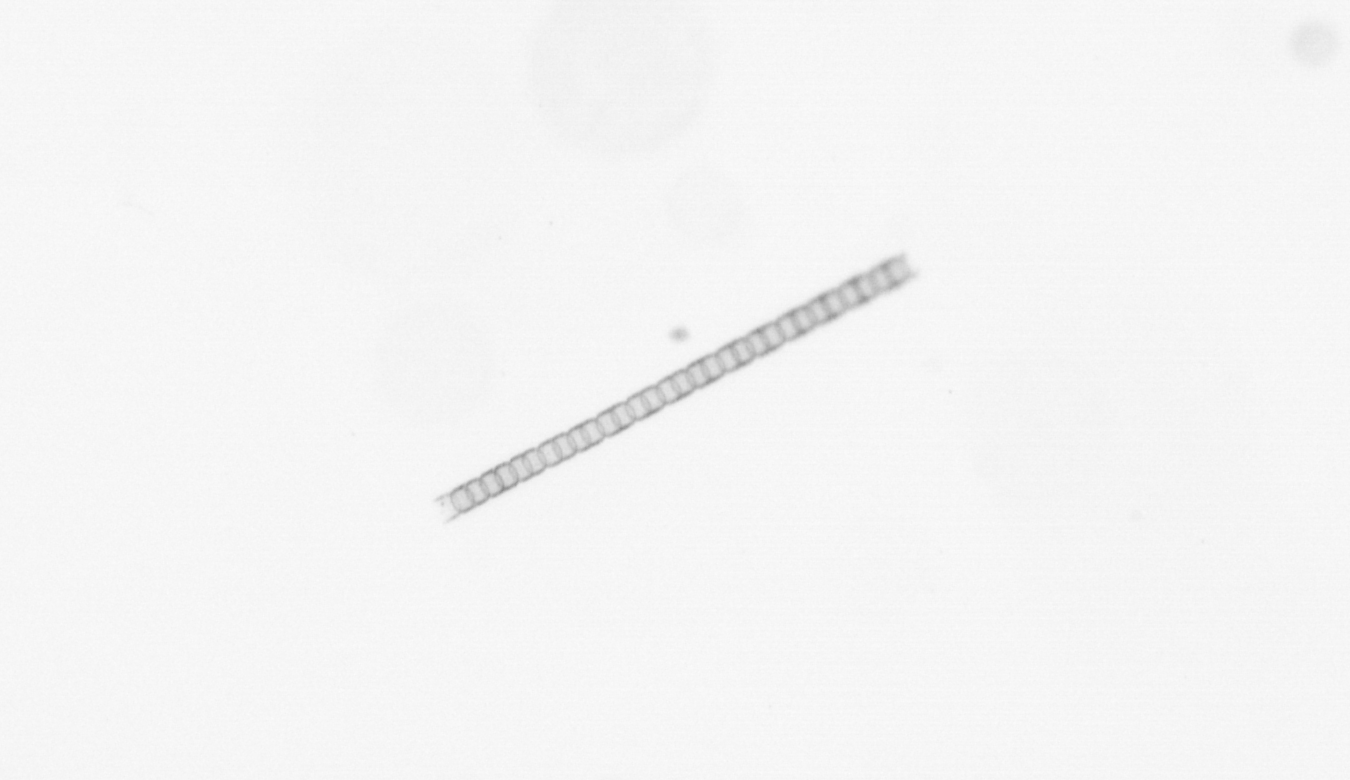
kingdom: Chromista
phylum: Ochrophyta
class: Bacillariophyceae
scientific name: Bacillariophyceae
